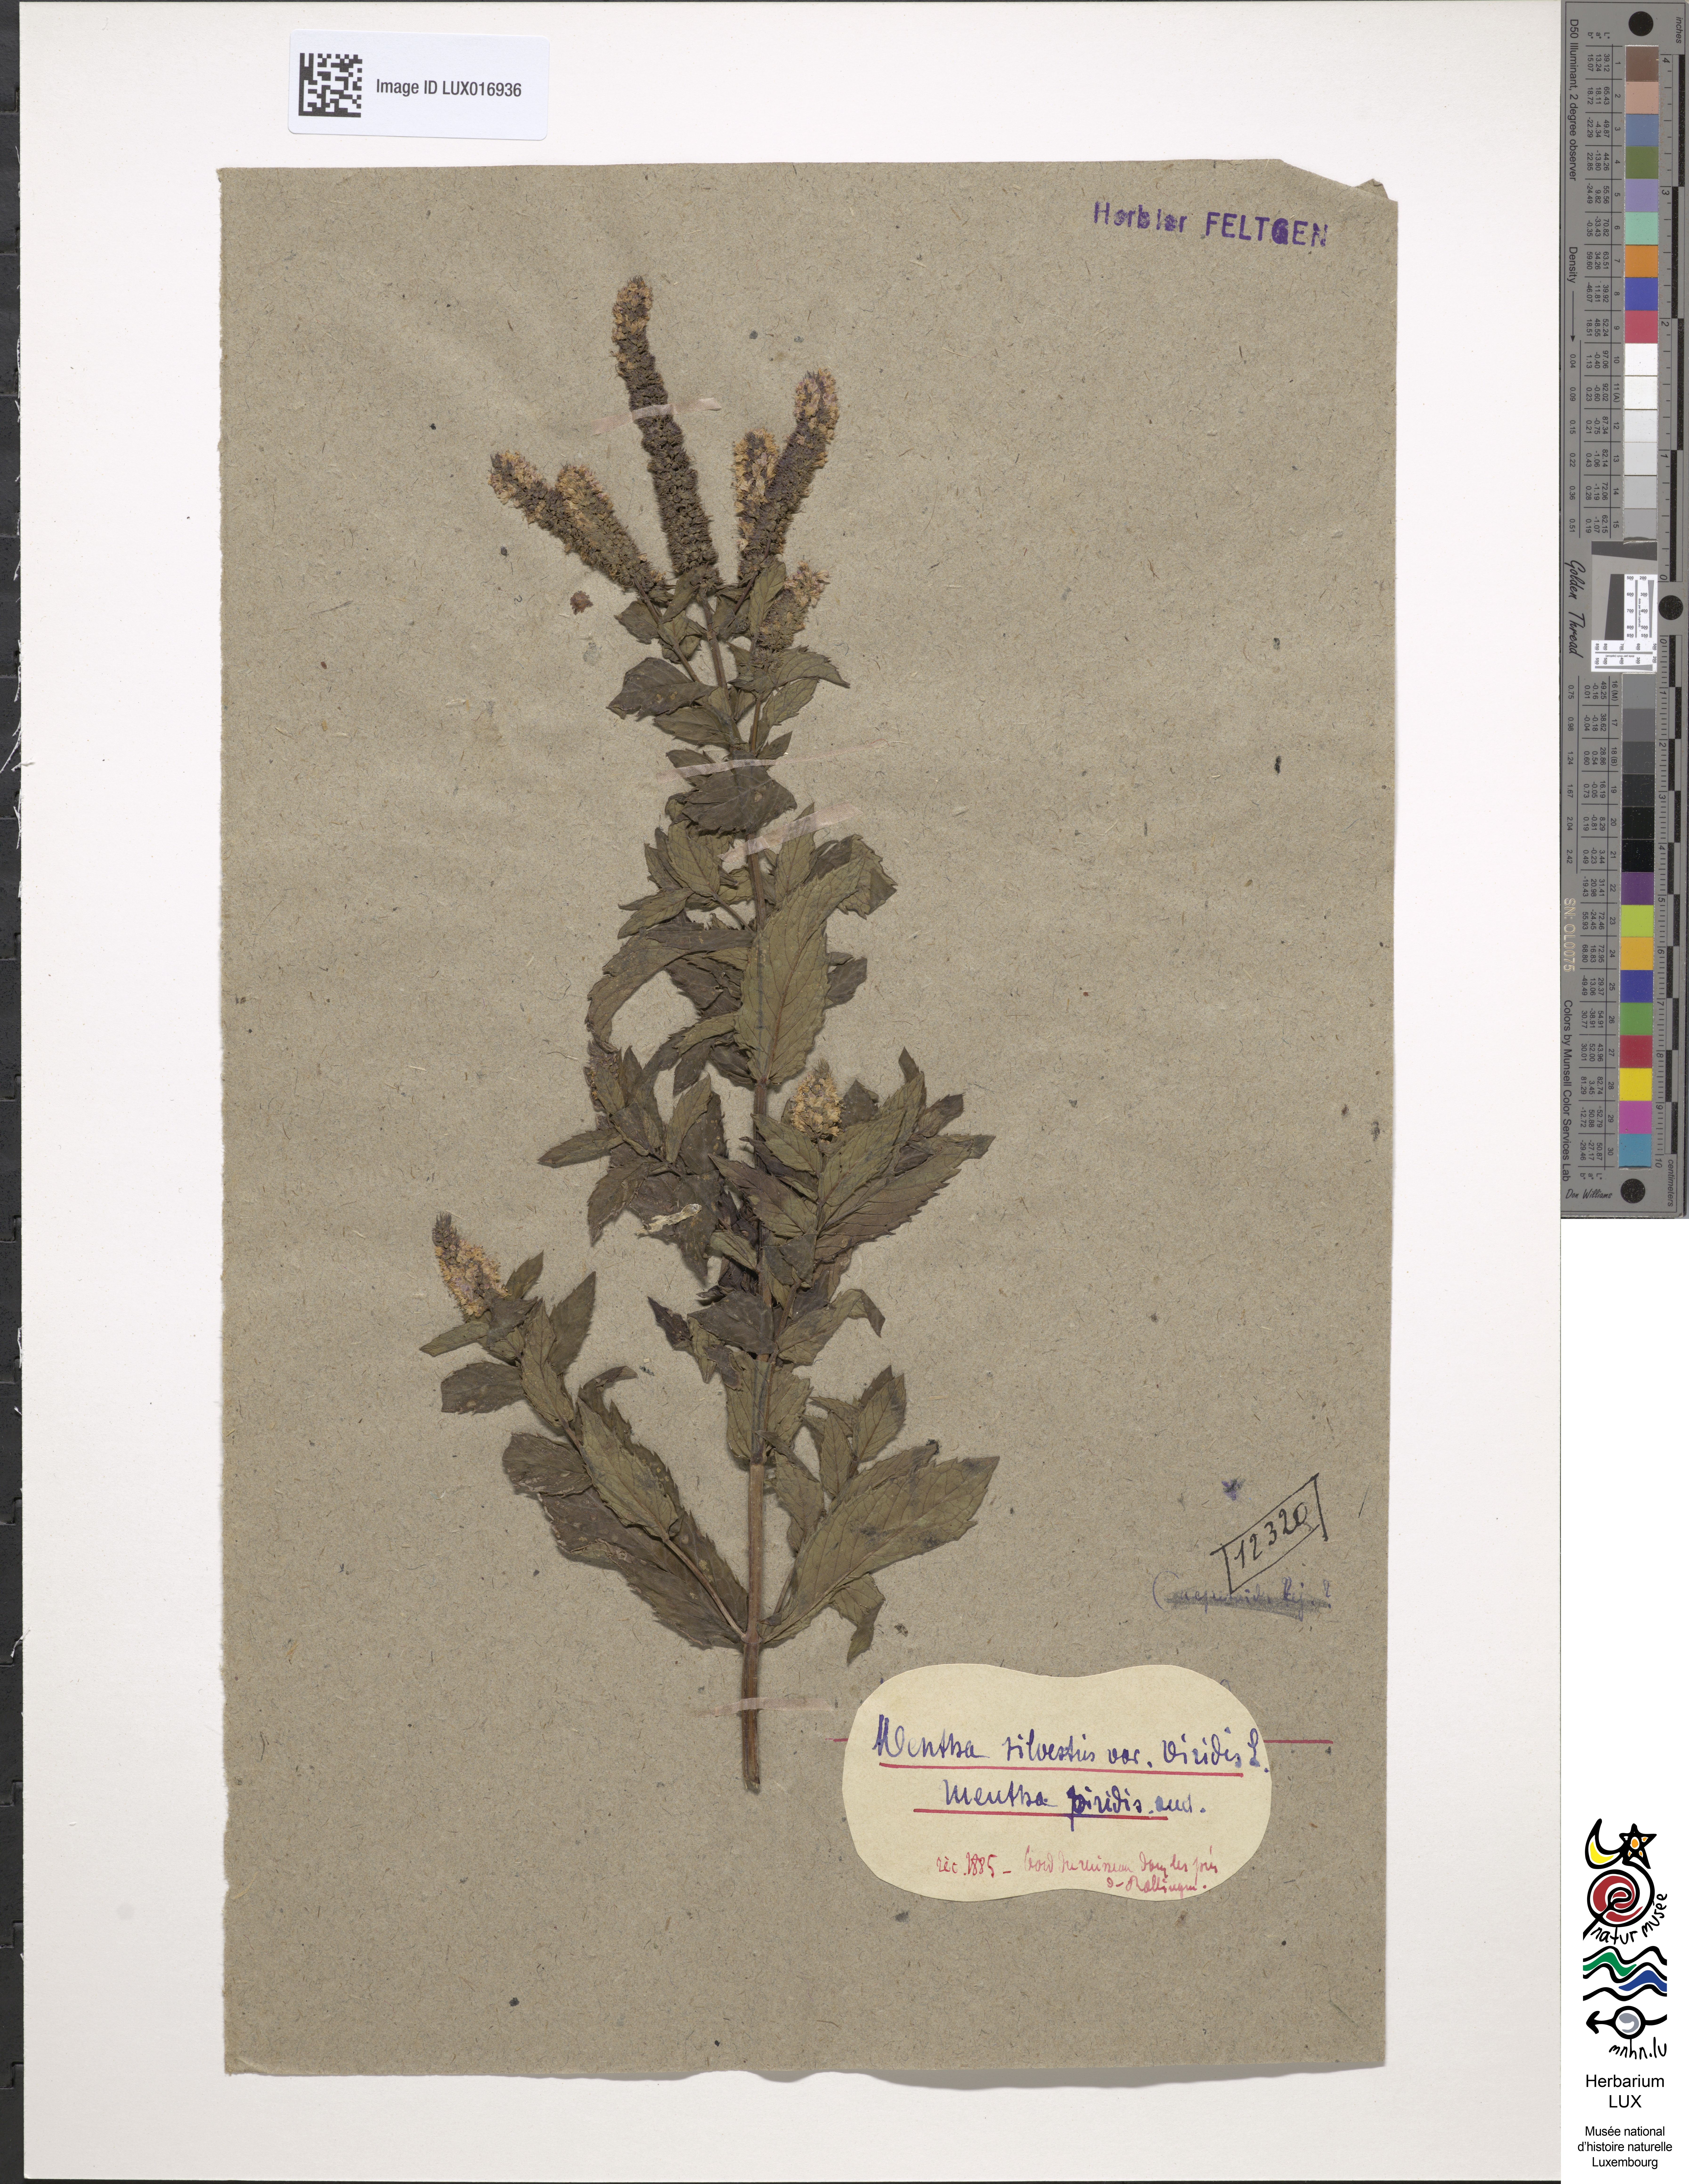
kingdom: Plantae
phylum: Tracheophyta
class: Magnoliopsida
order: Lamiales
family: Lamiaceae
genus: Mentha
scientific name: Mentha spicata
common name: Spearmint
